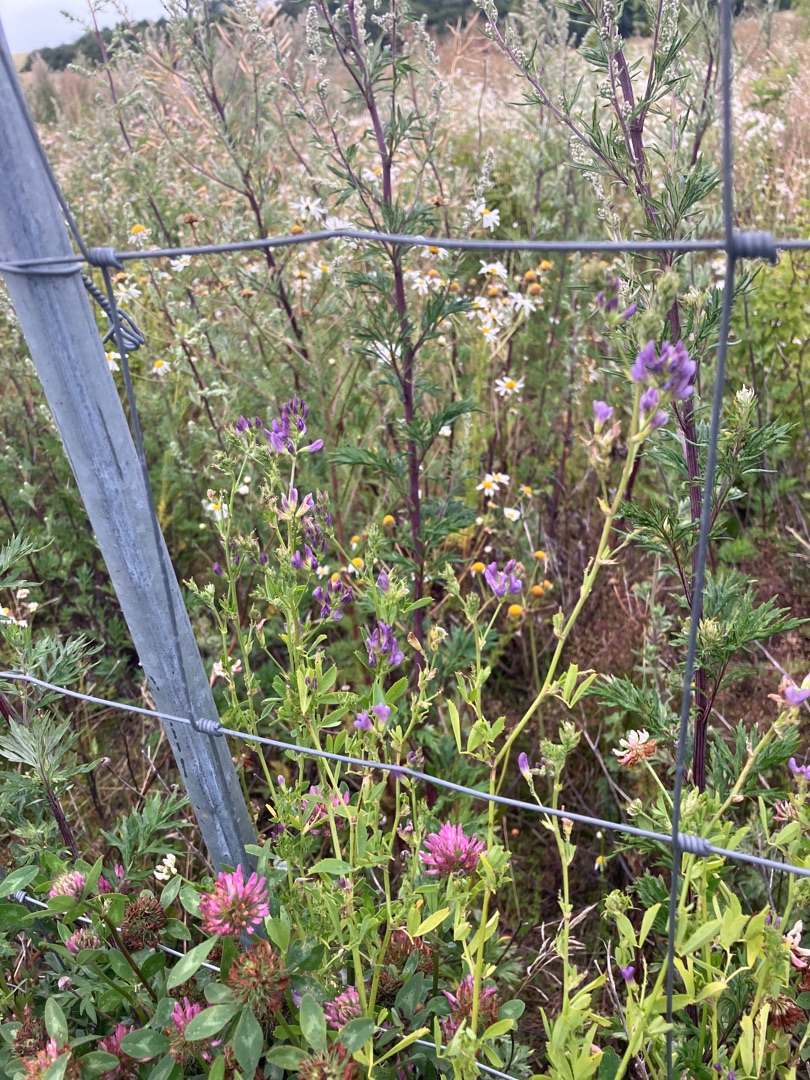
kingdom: Plantae
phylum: Tracheophyta
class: Magnoliopsida
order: Fabales
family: Fabaceae
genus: Medicago
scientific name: Medicago sativa
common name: Lucerne
